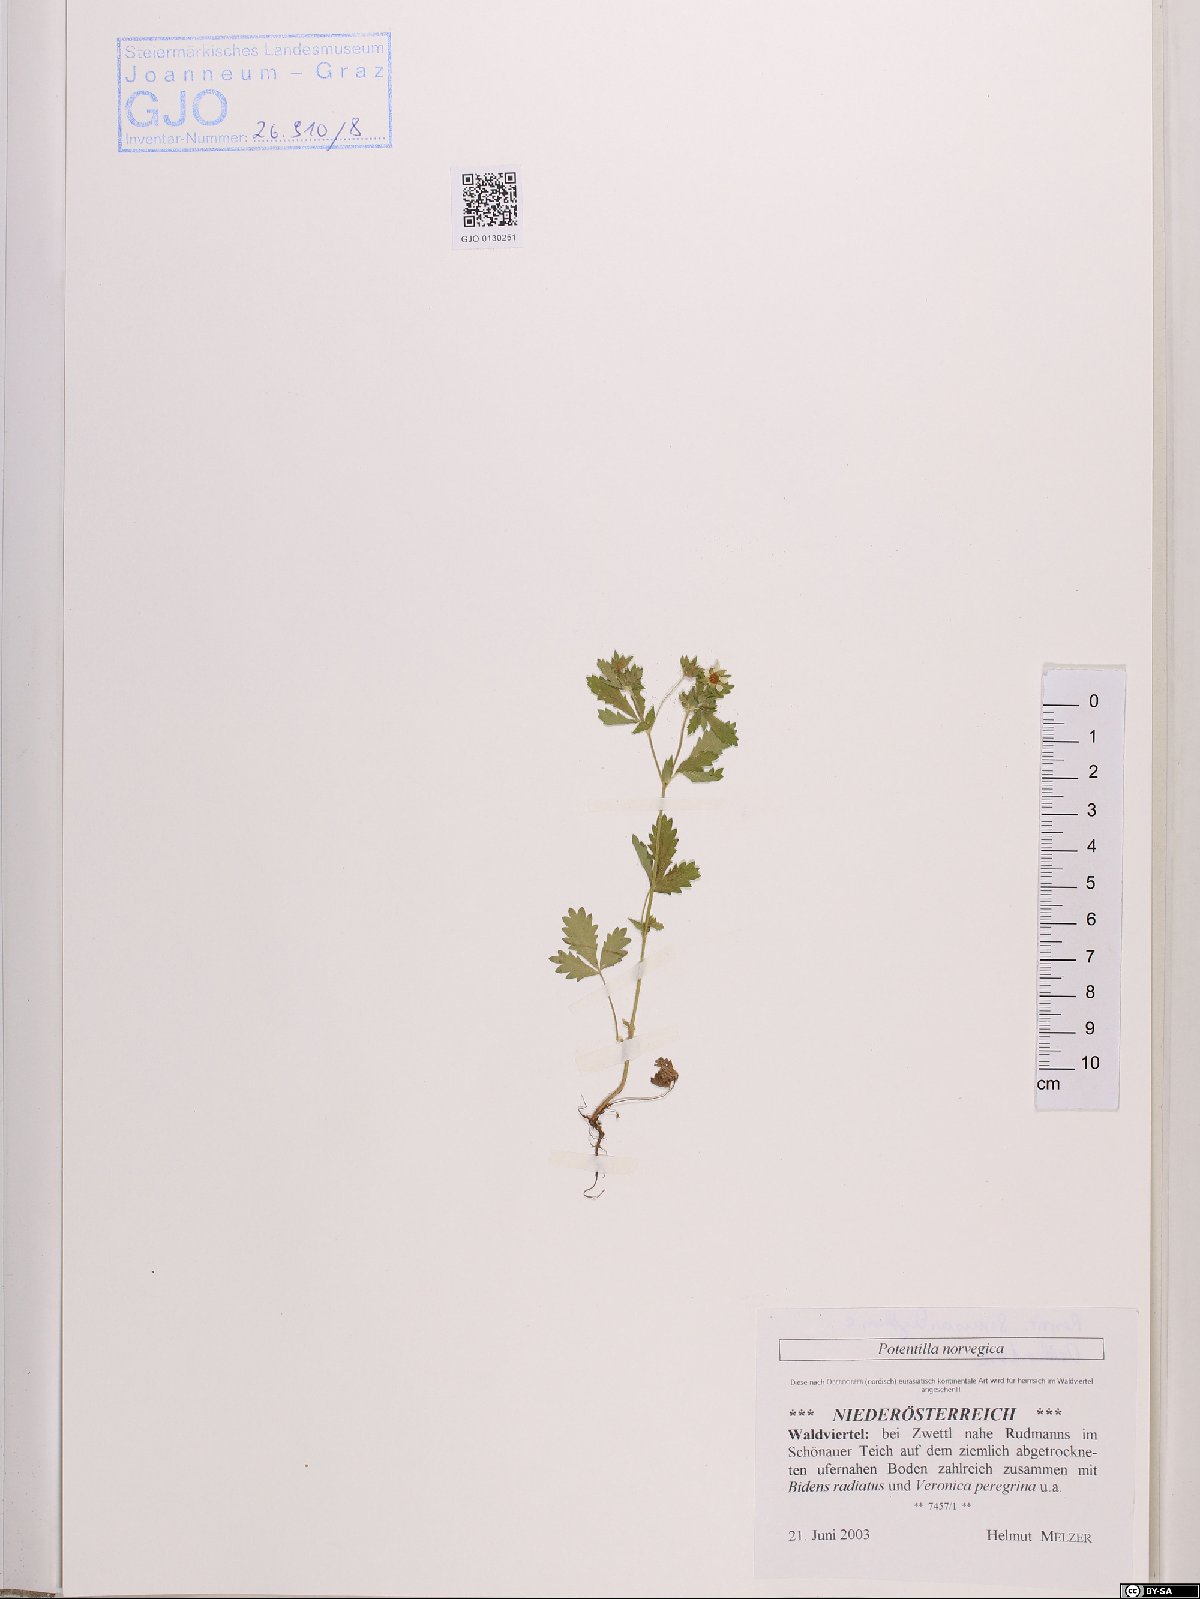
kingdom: Plantae
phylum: Tracheophyta
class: Magnoliopsida
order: Rosales
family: Rosaceae
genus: Potentilla
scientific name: Potentilla norvegica
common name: Ternate-leaved cinquefoil
